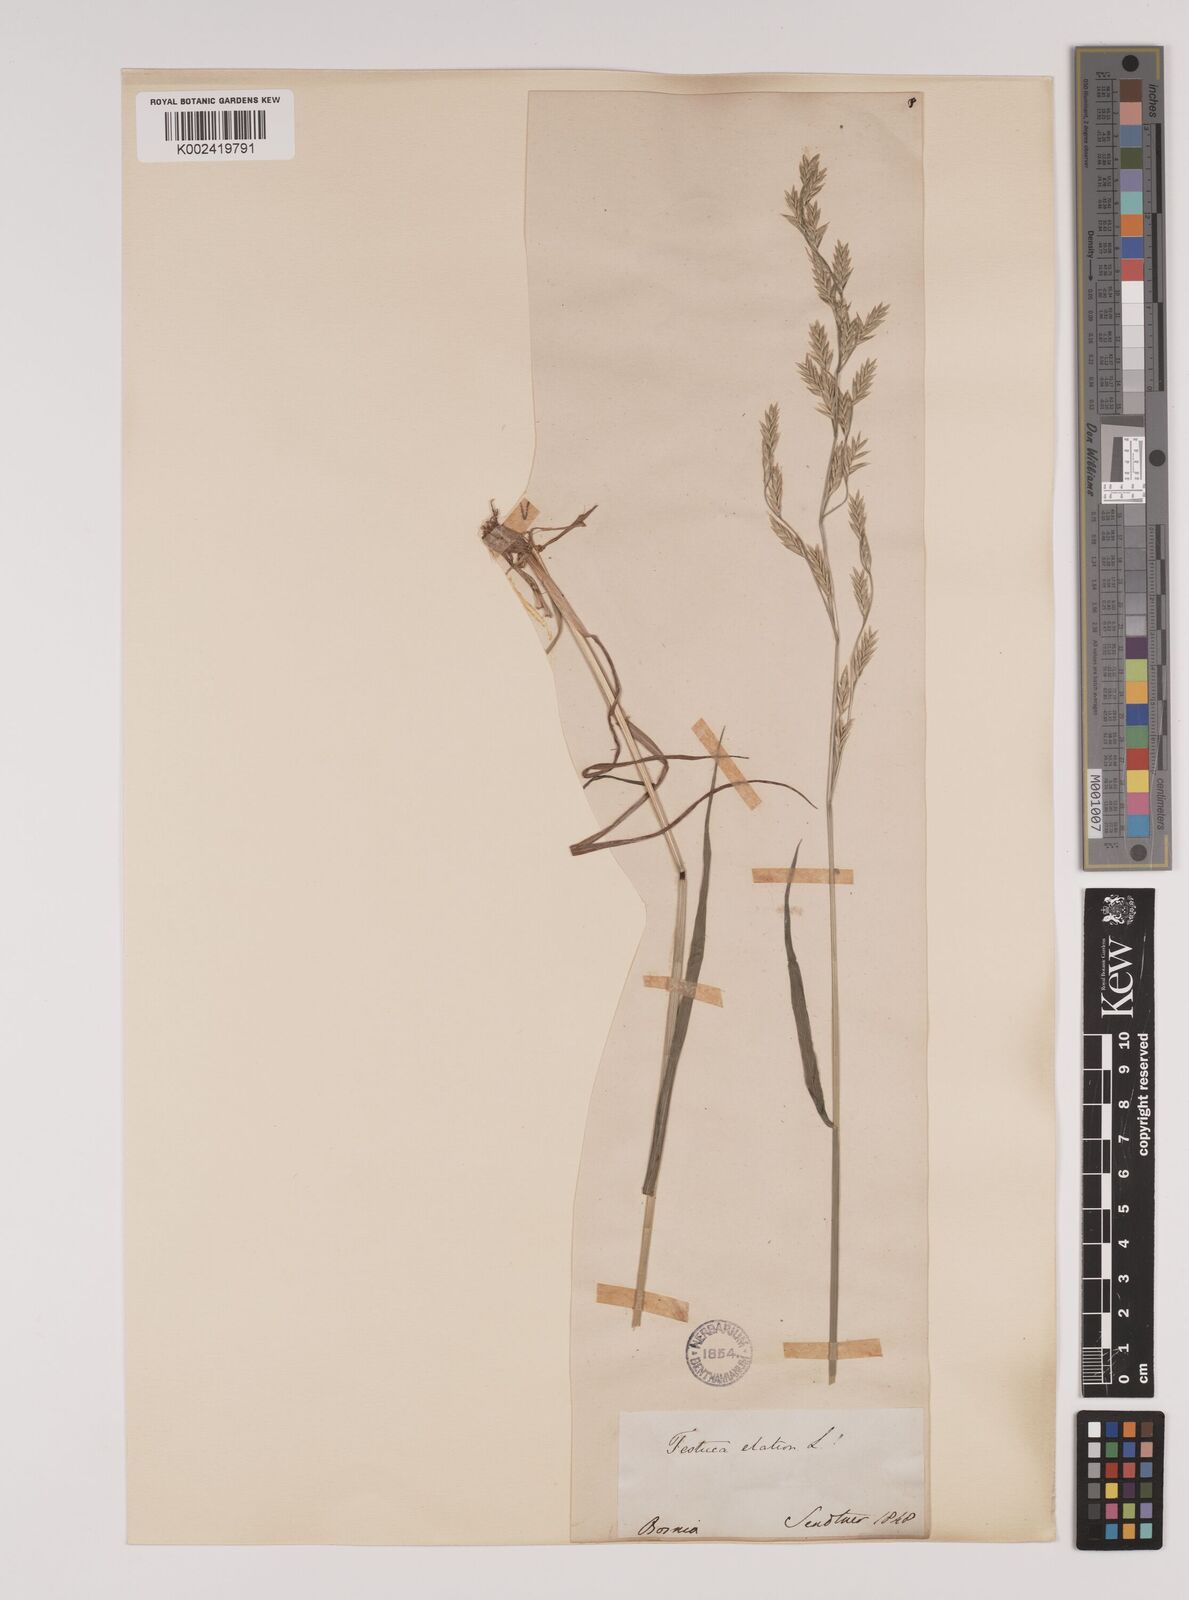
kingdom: Plantae
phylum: Tracheophyta
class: Liliopsida
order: Poales
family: Poaceae
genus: Festuca
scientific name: Festuca
